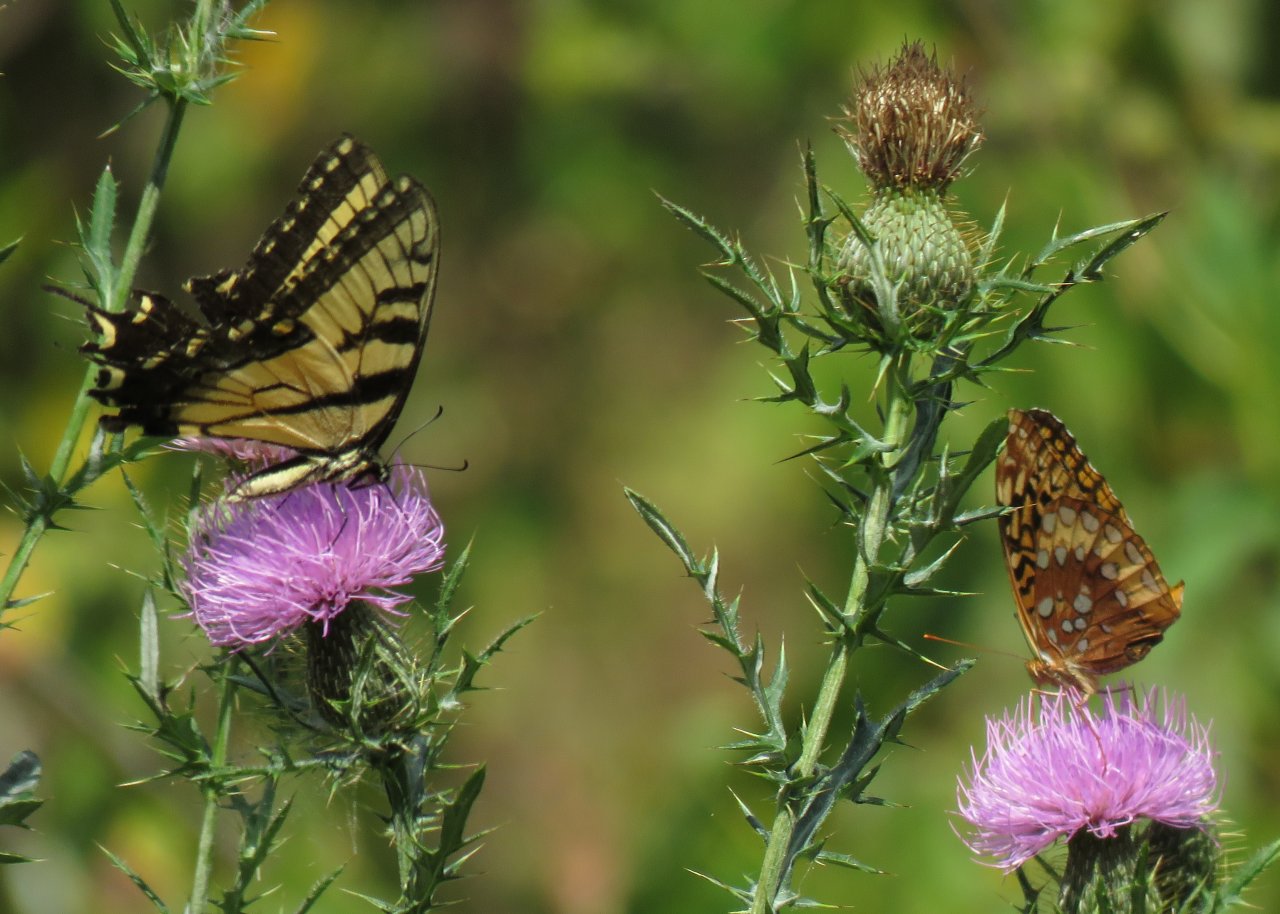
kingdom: Animalia
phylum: Arthropoda
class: Insecta
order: Lepidoptera
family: Nymphalidae
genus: Speyeria
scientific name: Speyeria cybele
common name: Great Spangled Fritillary
